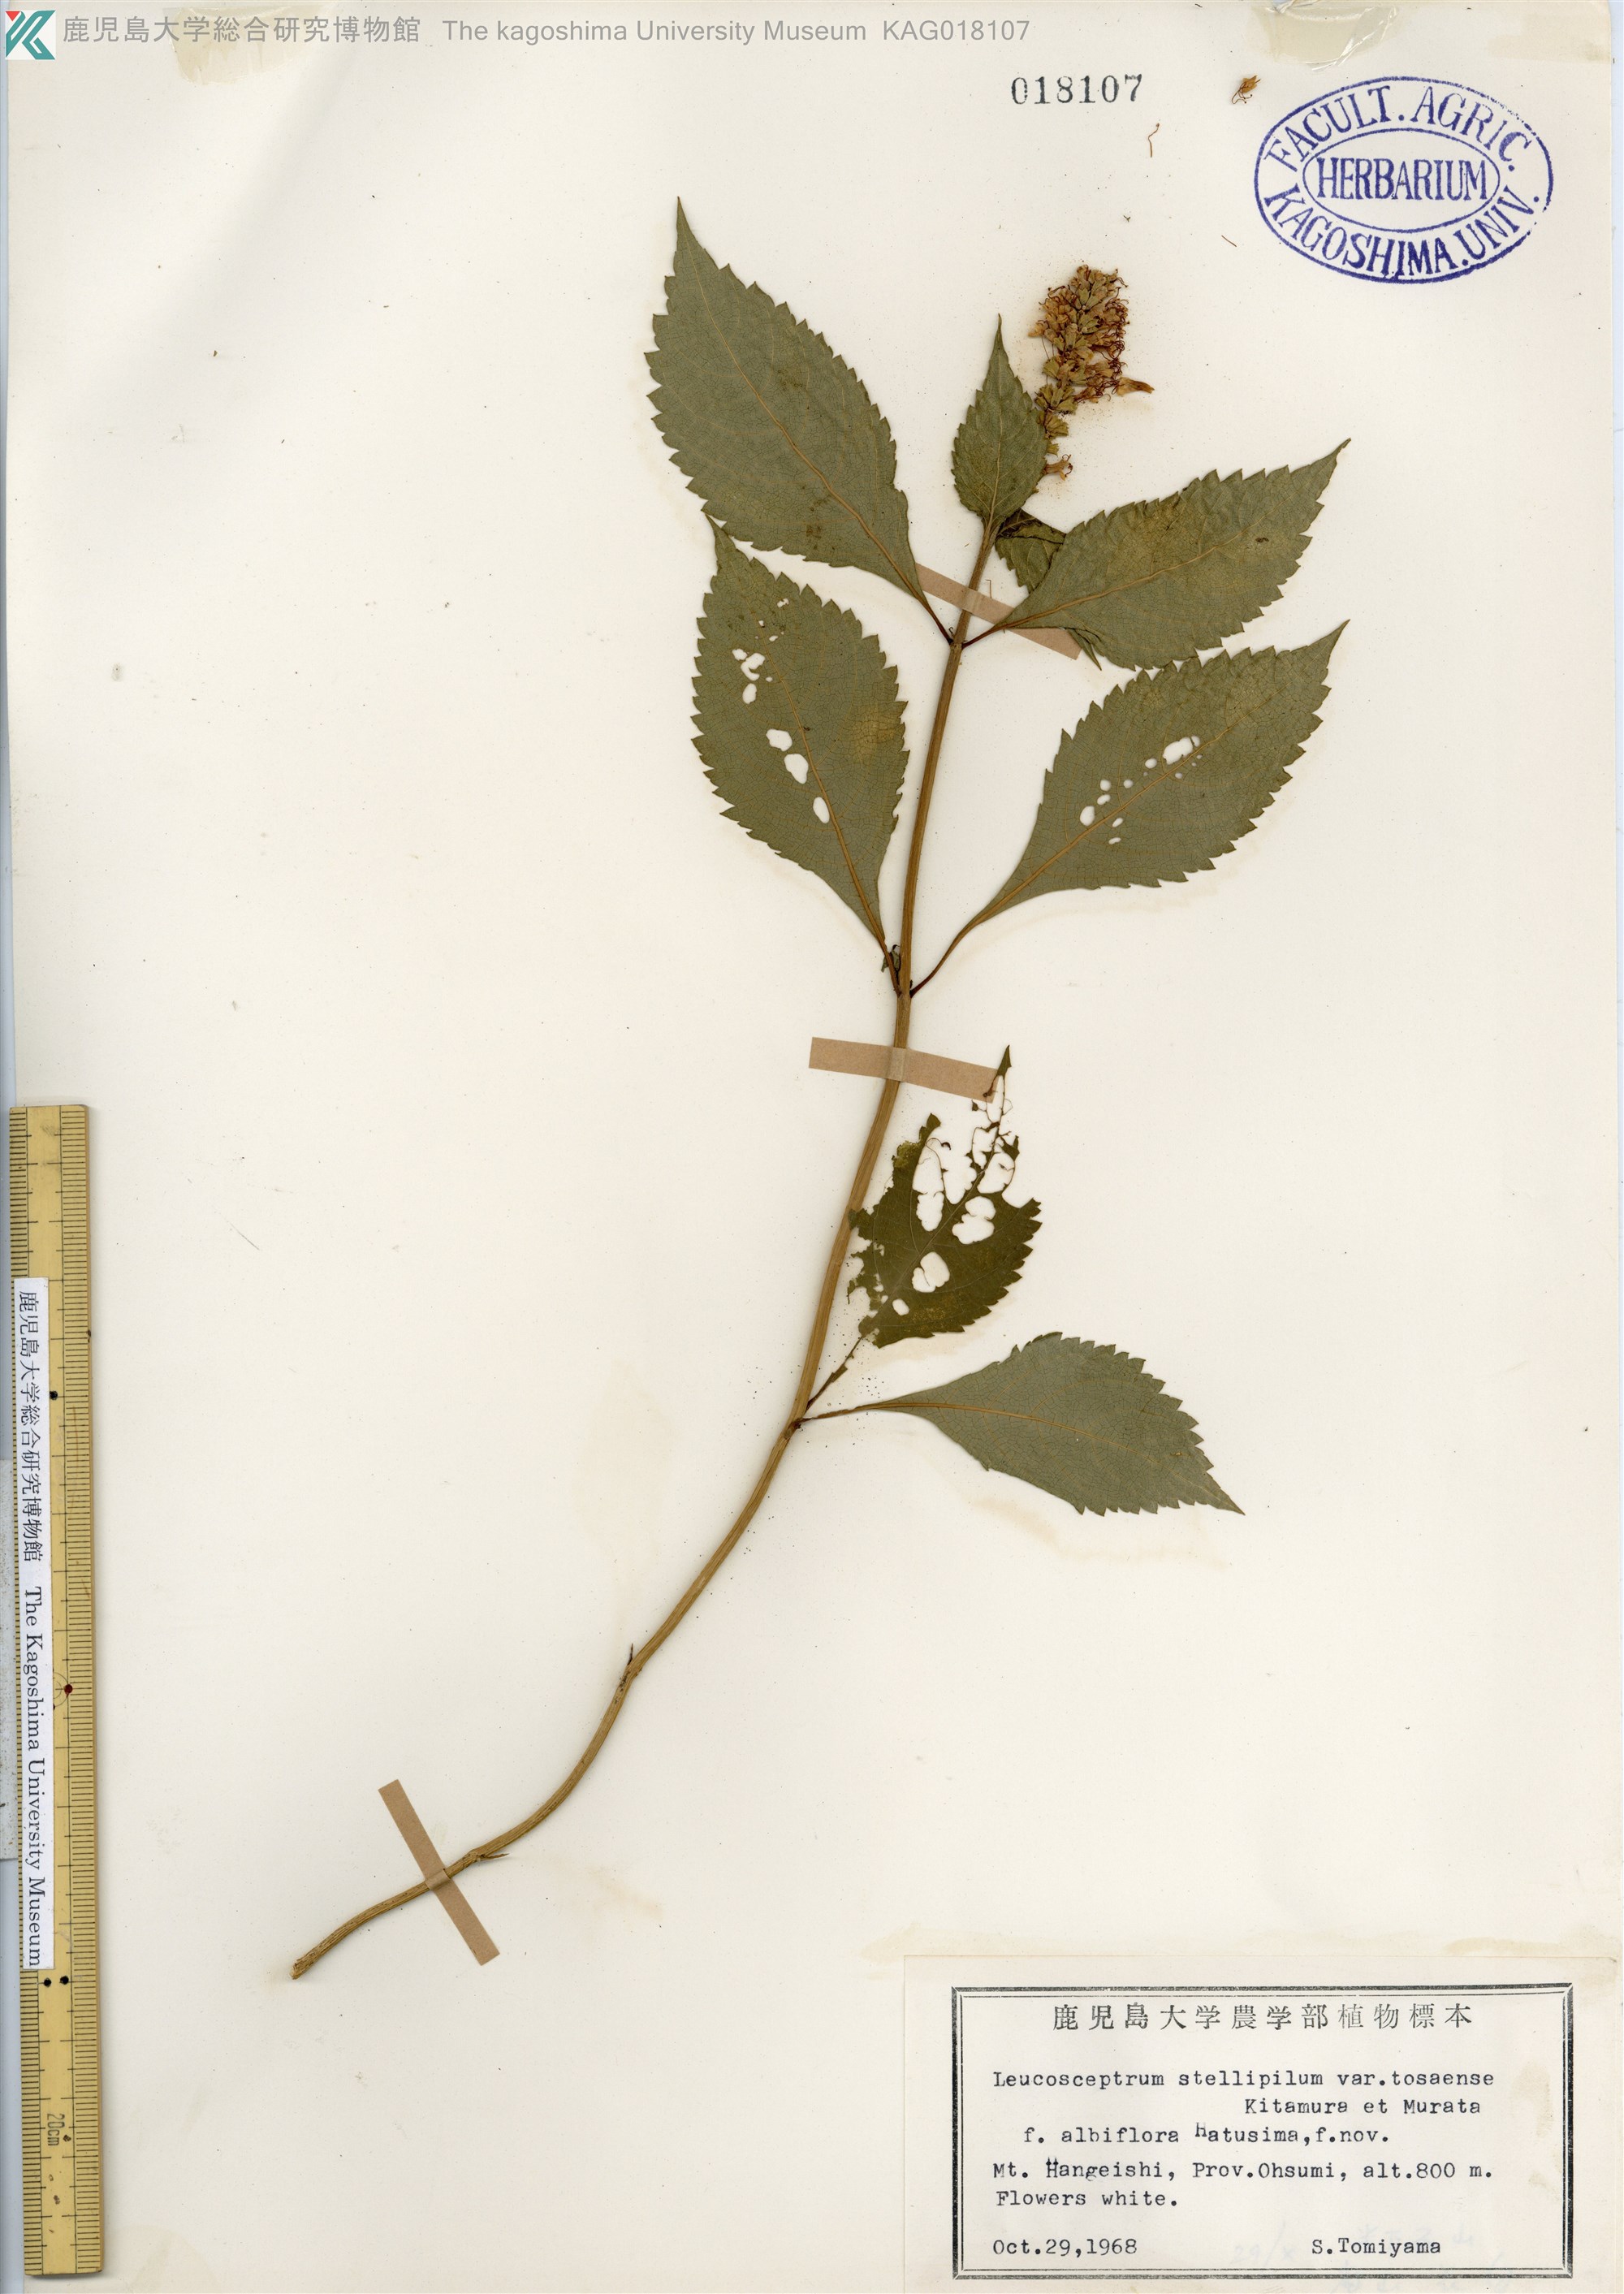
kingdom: Plantae
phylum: Tracheophyta
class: Magnoliopsida
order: Lamiales
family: Lamiaceae
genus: Comanthosphace
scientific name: Comanthosphace japonica
